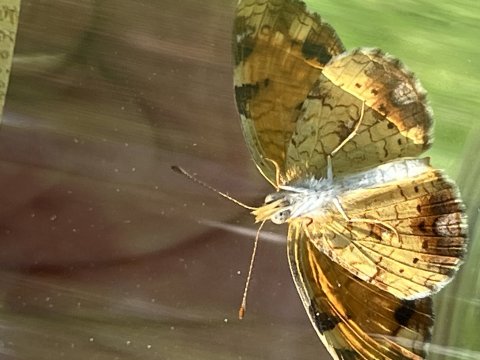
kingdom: Animalia
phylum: Arthropoda
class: Insecta
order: Lepidoptera
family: Nymphalidae
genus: Phyciodes
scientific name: Phyciodes tharos
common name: Northern Crescent
